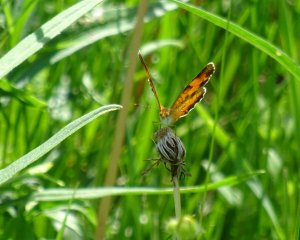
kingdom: Animalia
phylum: Arthropoda
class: Insecta
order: Lepidoptera
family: Nymphalidae
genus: Phyciodes
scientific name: Phyciodes tharos
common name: Northern Crescent
